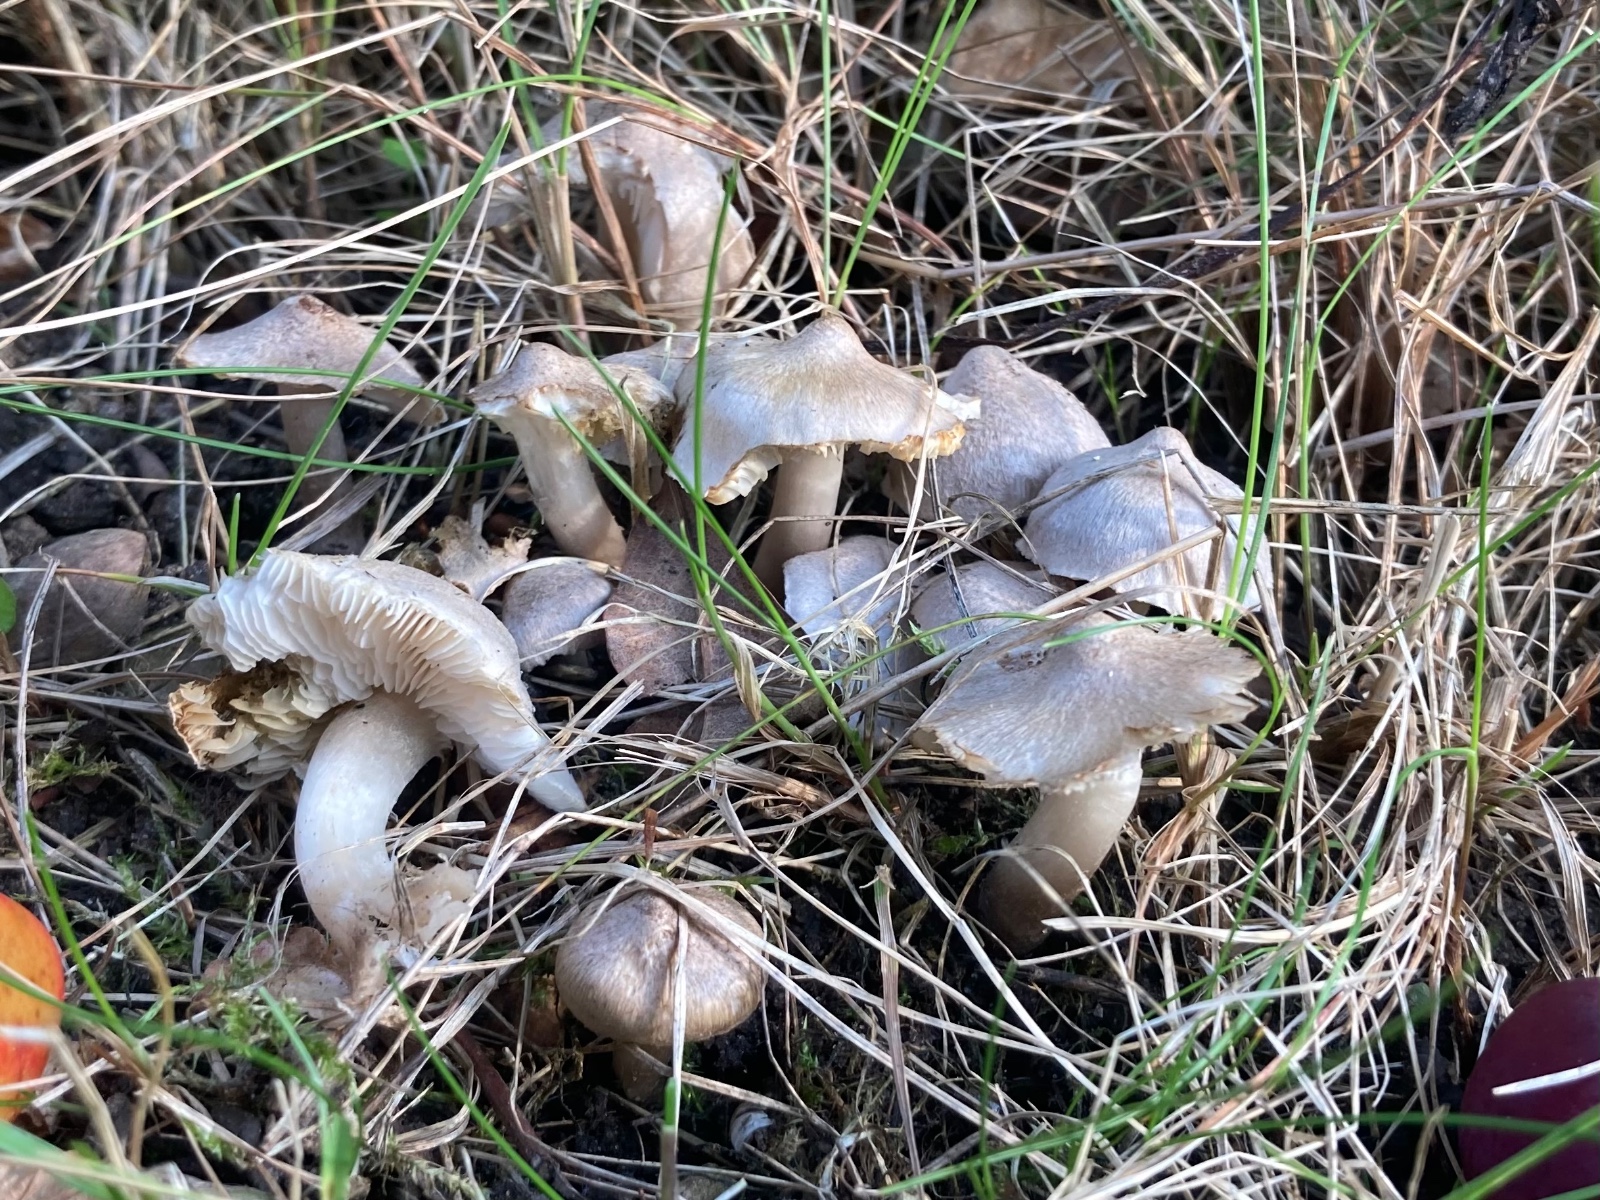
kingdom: Fungi
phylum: Basidiomycota
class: Agaricomycetes
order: Agaricales
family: Tricholomataceae
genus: Tricholoma
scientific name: Tricholoma argyraceum
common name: spids ridderhat
